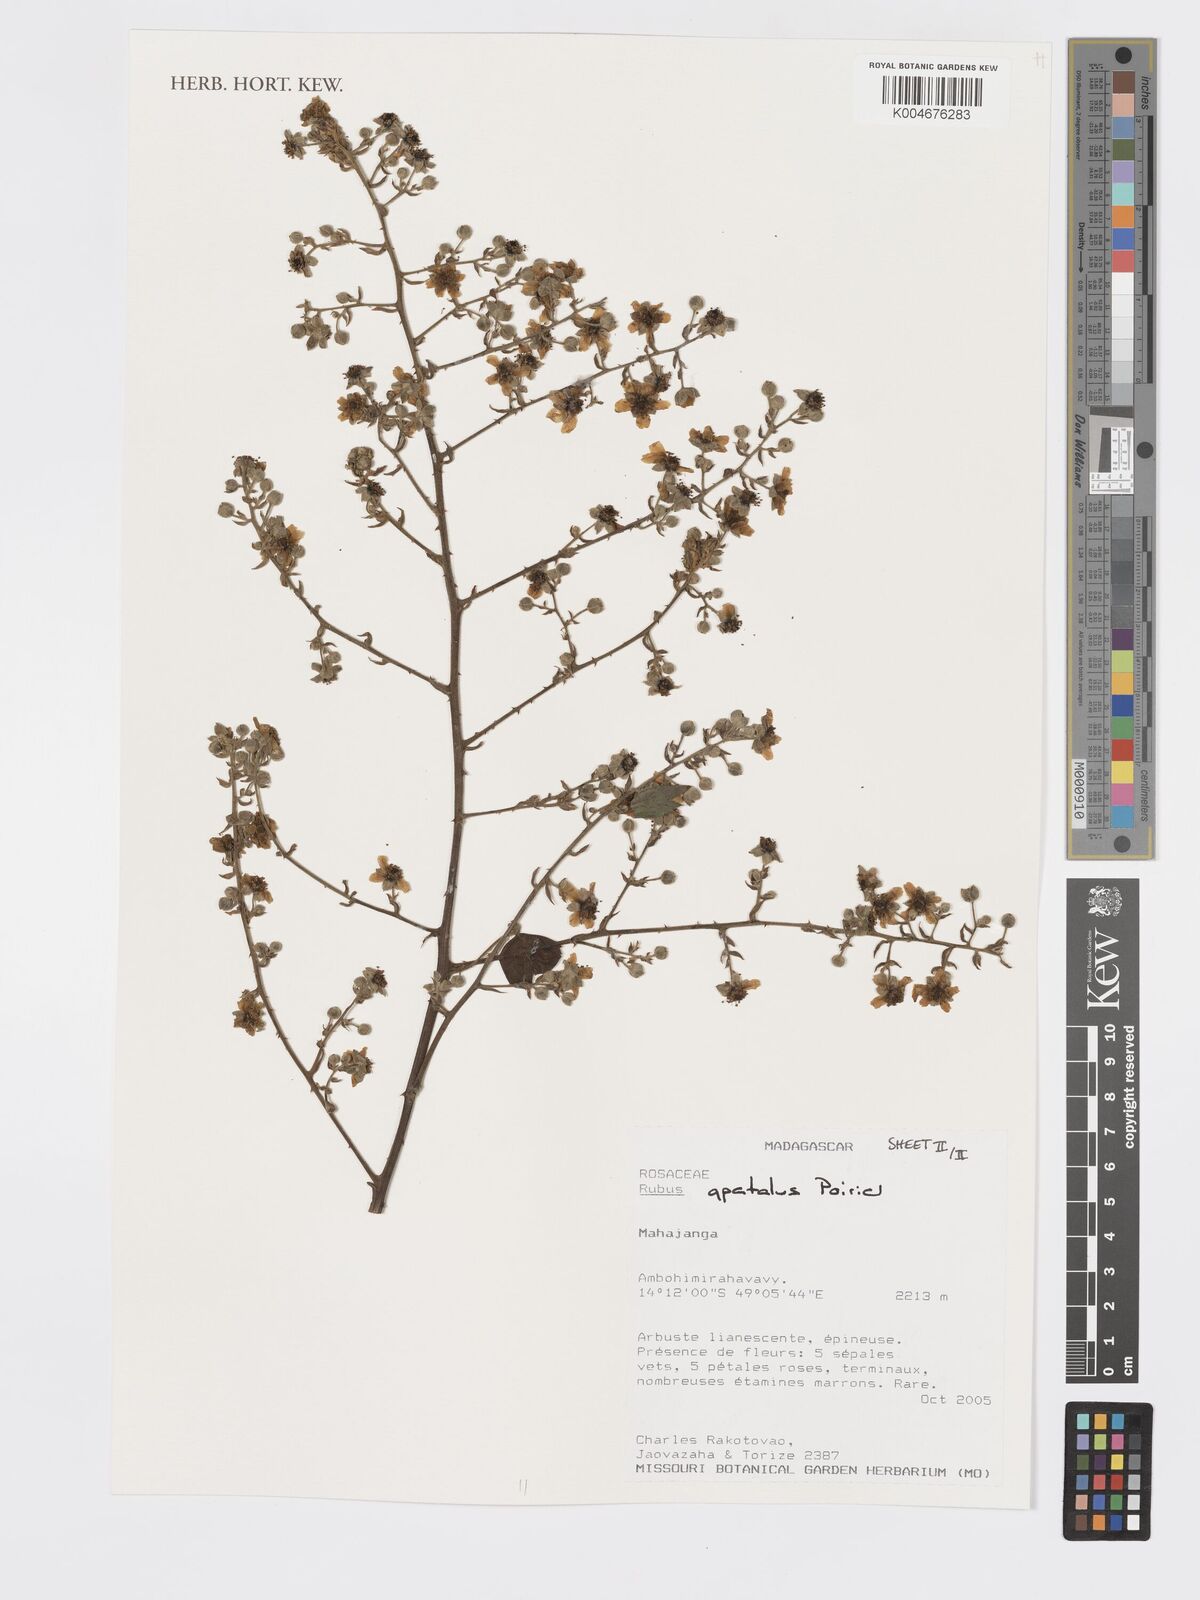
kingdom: Plantae
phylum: Tracheophyta
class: Magnoliopsida
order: Rosales
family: Rosaceae
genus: Rubus
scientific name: Rubus apetalus
